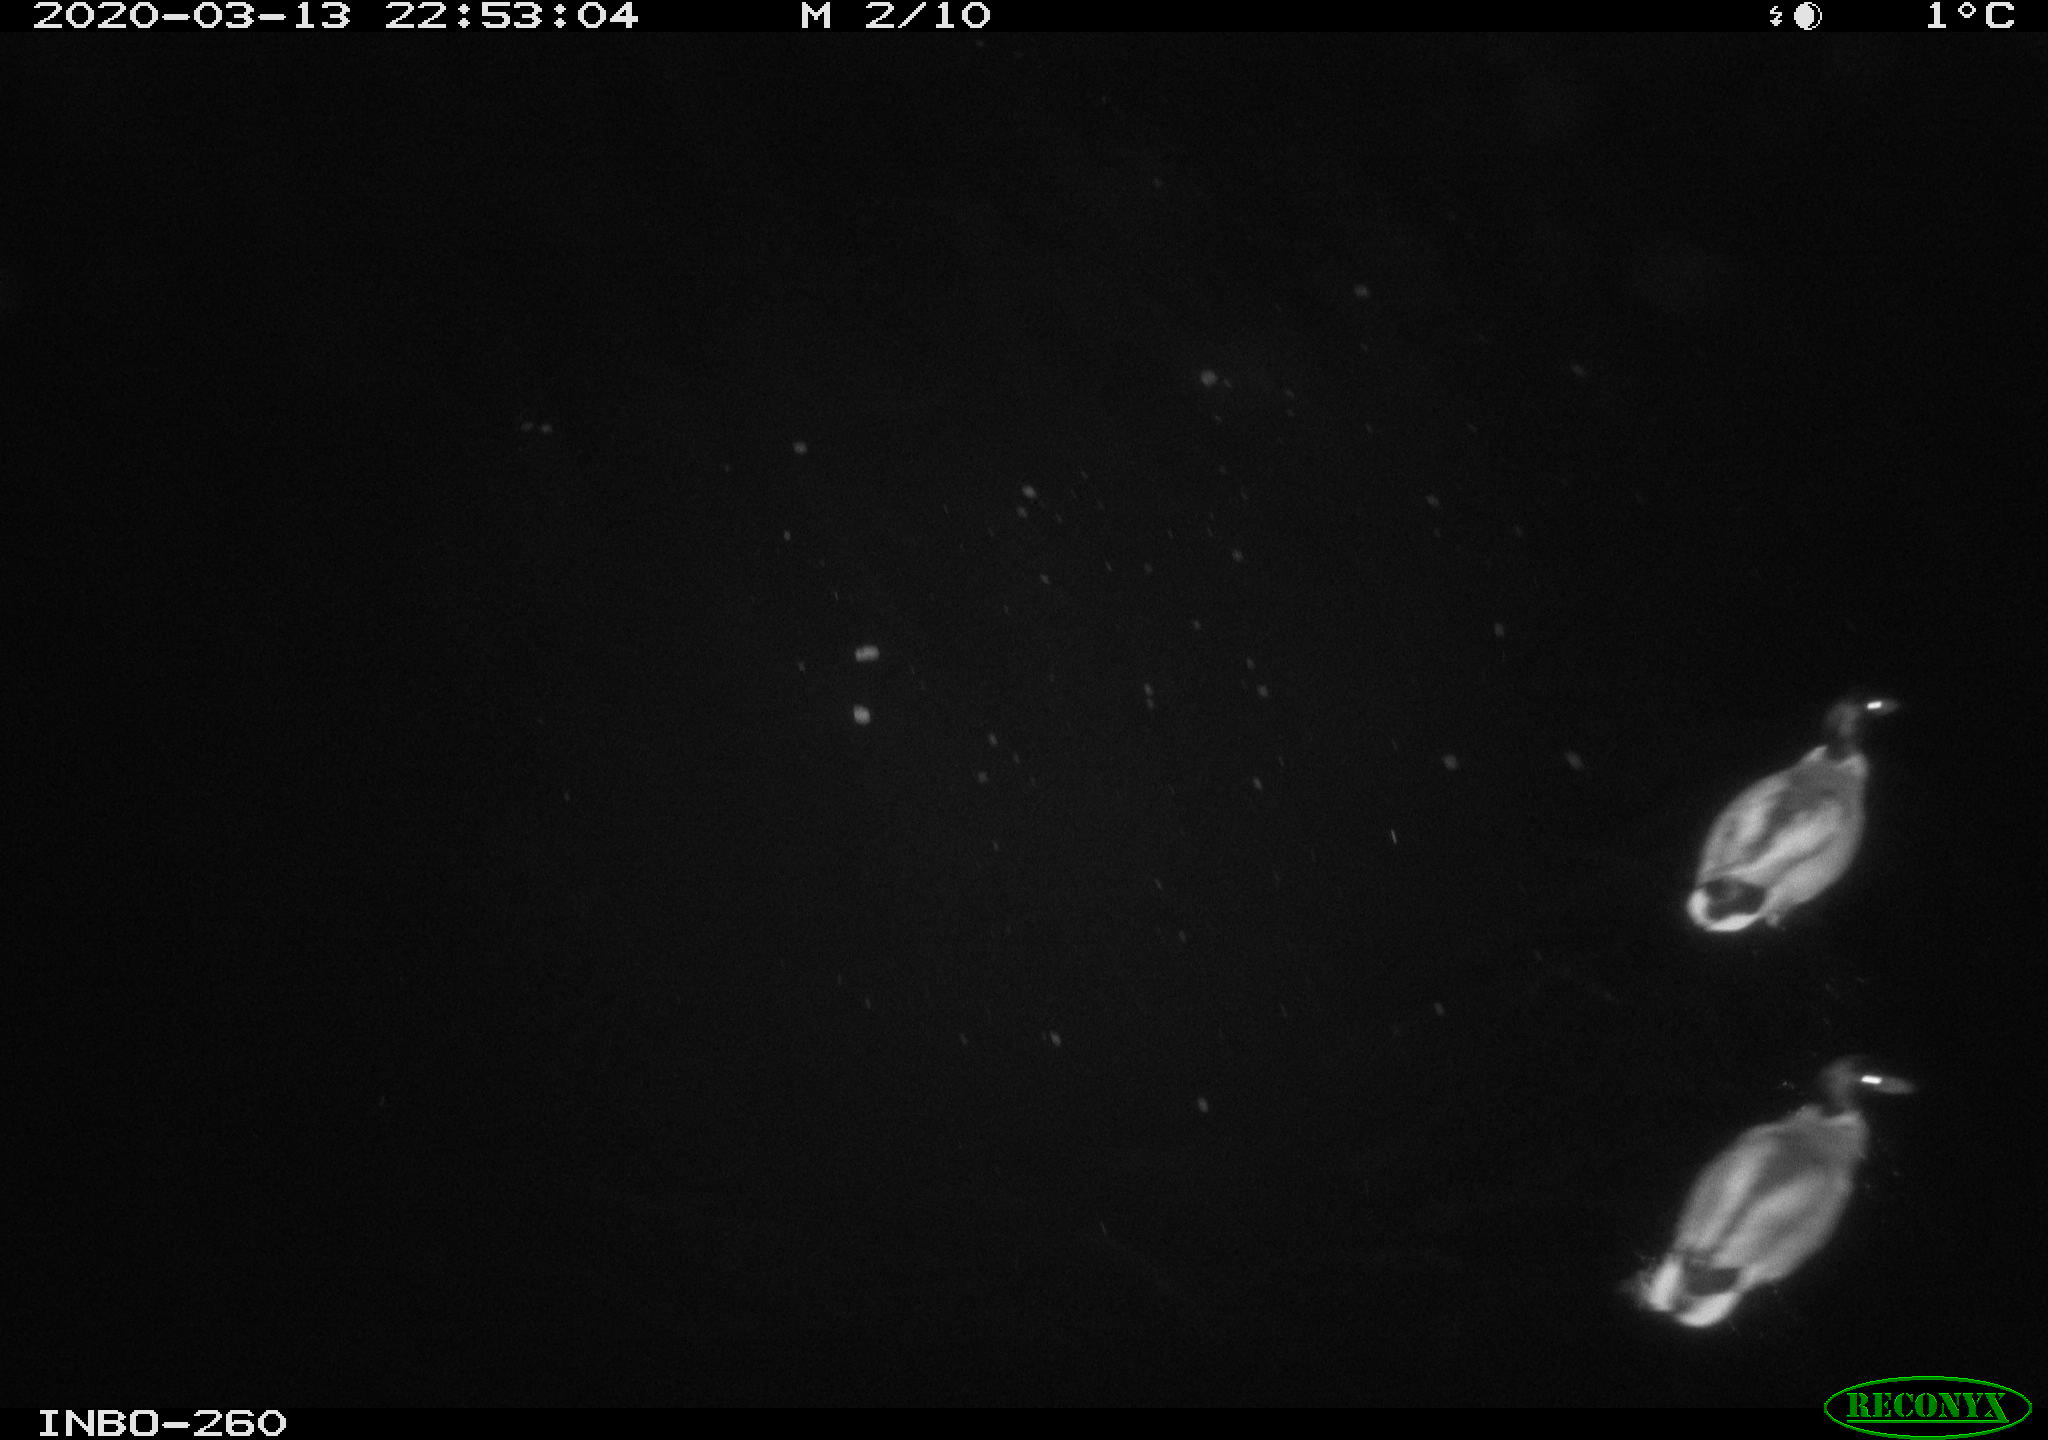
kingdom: Animalia
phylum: Chordata
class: Aves
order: Anseriformes
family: Anatidae
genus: Anas
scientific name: Anas platyrhynchos
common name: Mallard
